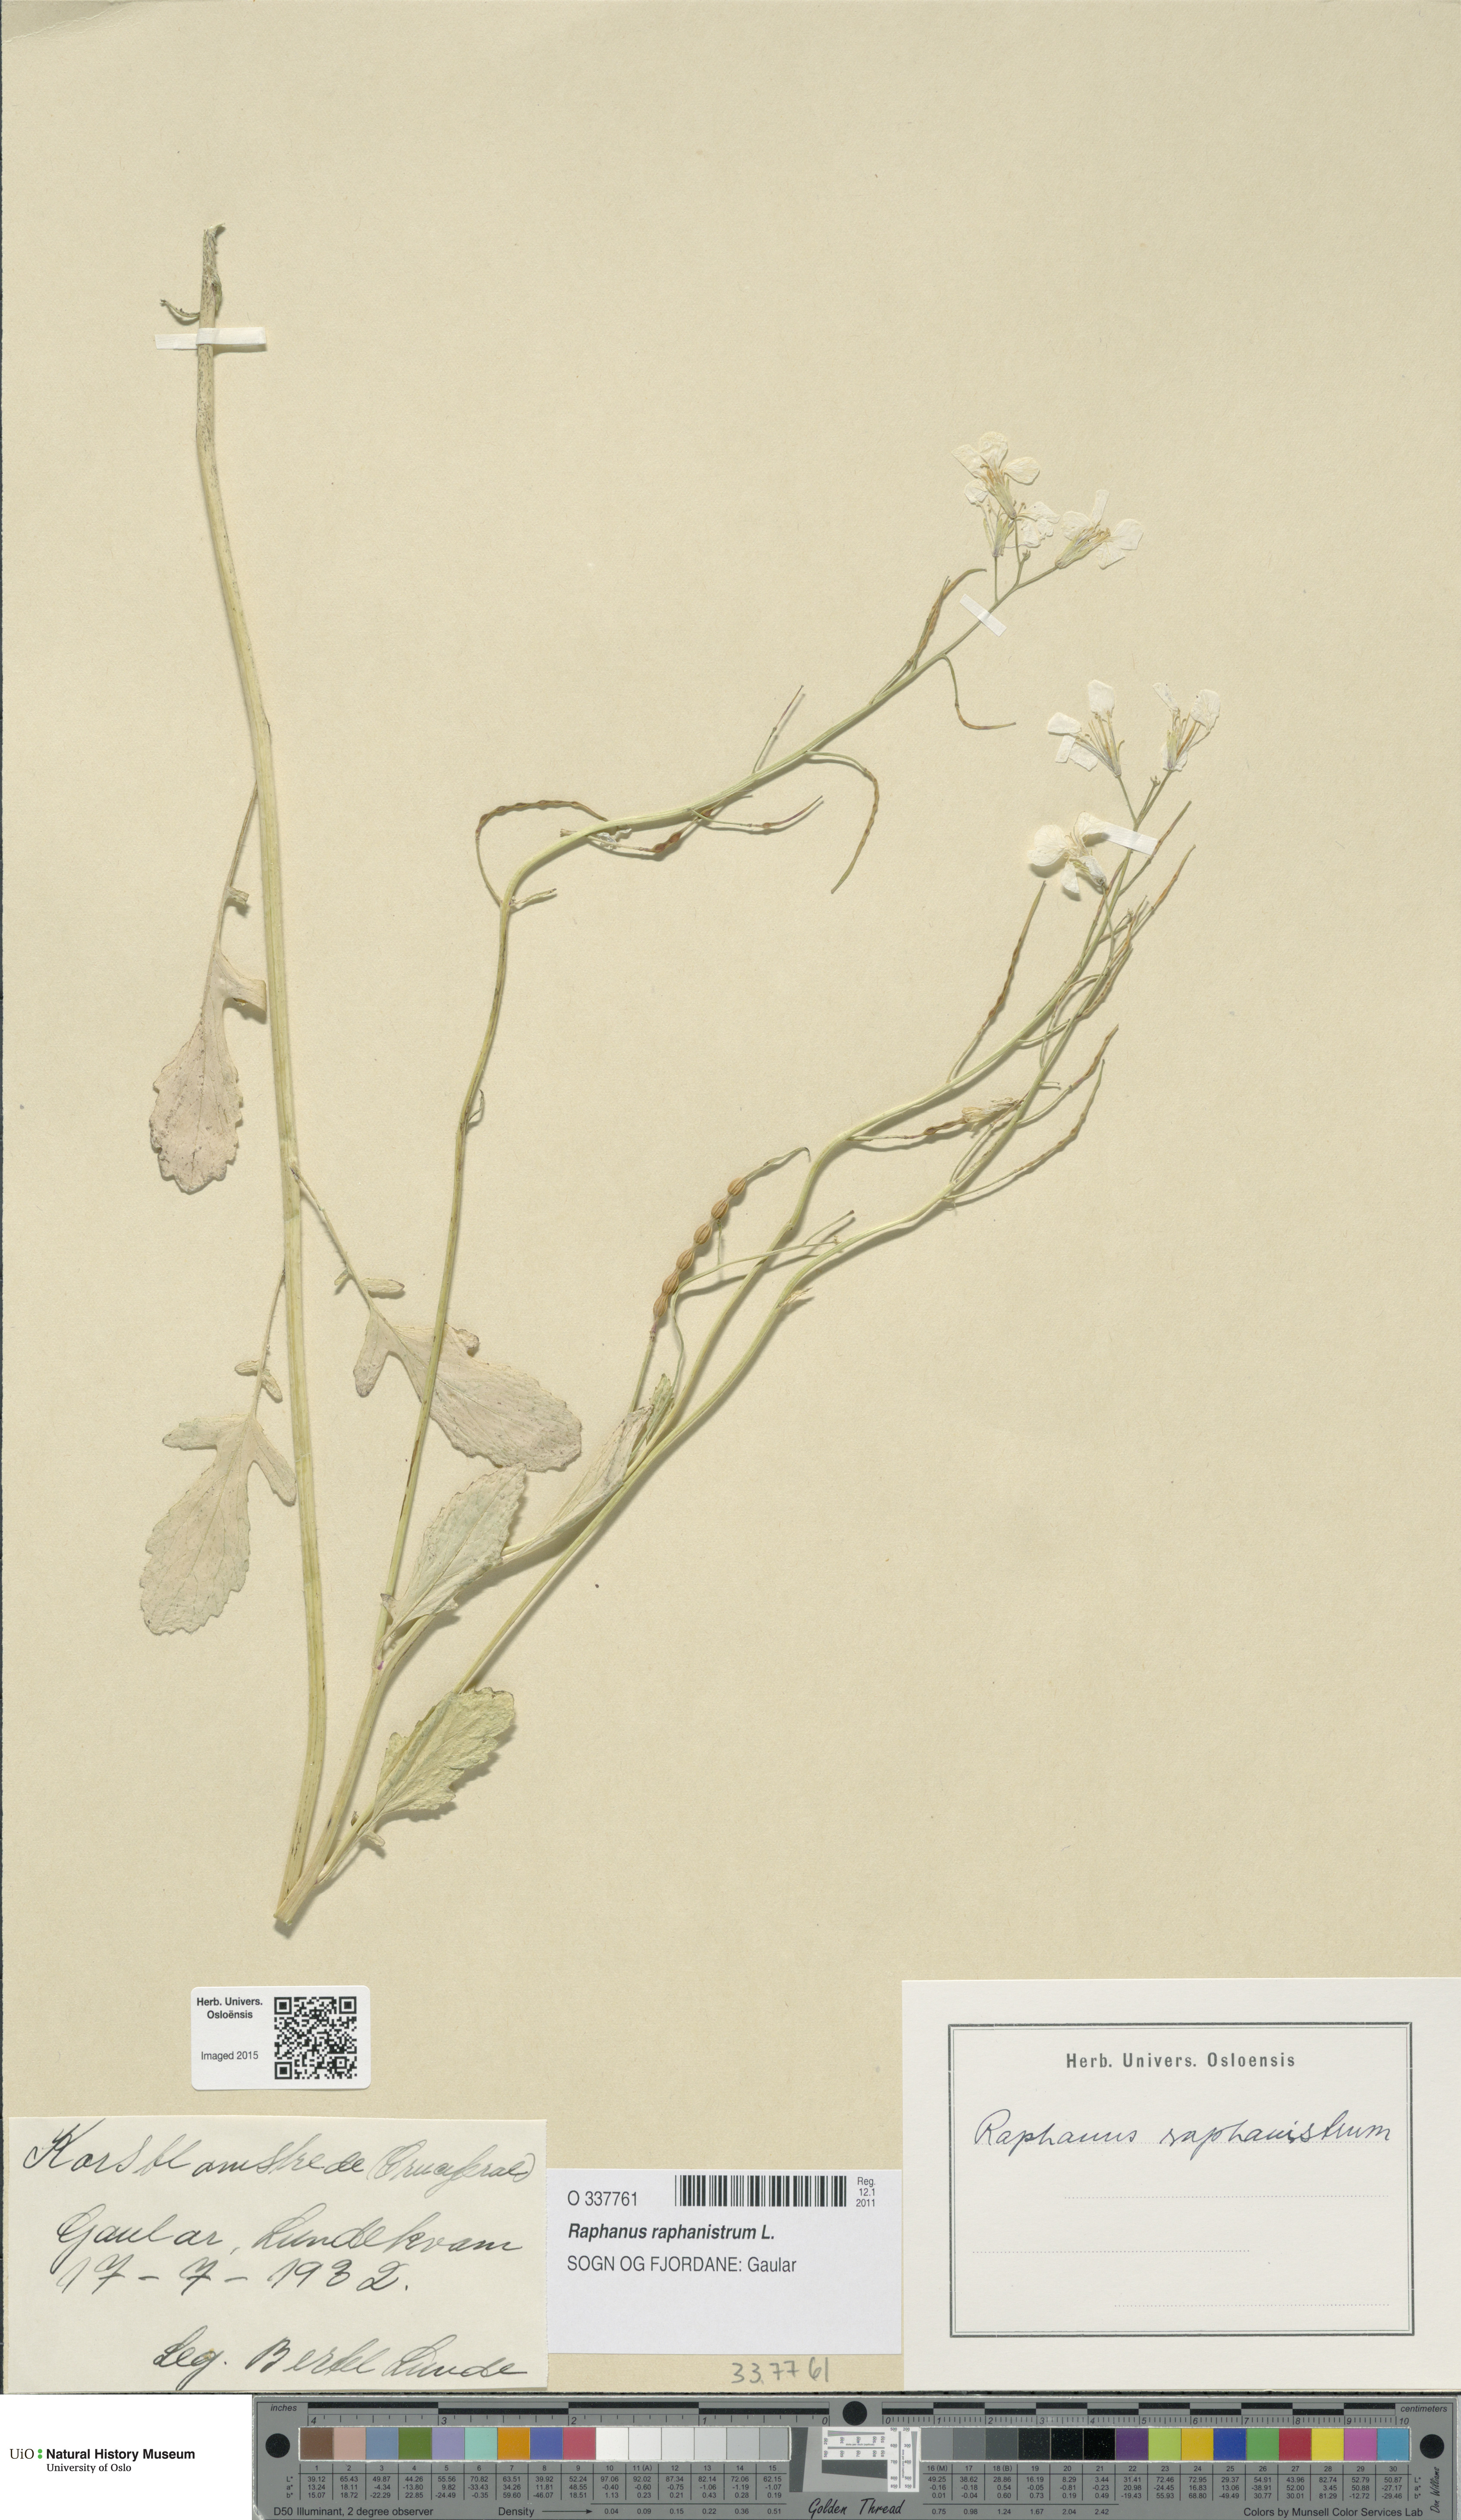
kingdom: Plantae
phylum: Tracheophyta
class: Magnoliopsida
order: Brassicales
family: Brassicaceae
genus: Raphanus
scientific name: Raphanus raphanistrum
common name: Wild radish
